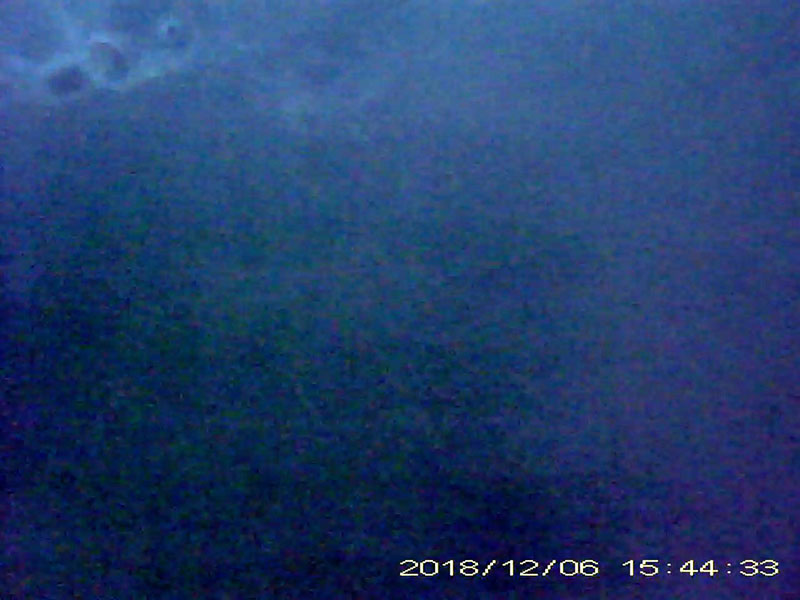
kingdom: Animalia
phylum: Chordata
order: Cypriniformes
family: Cyprinidae
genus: Carassius
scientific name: Carassius cuvieri
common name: ゲンゴロウブナ
